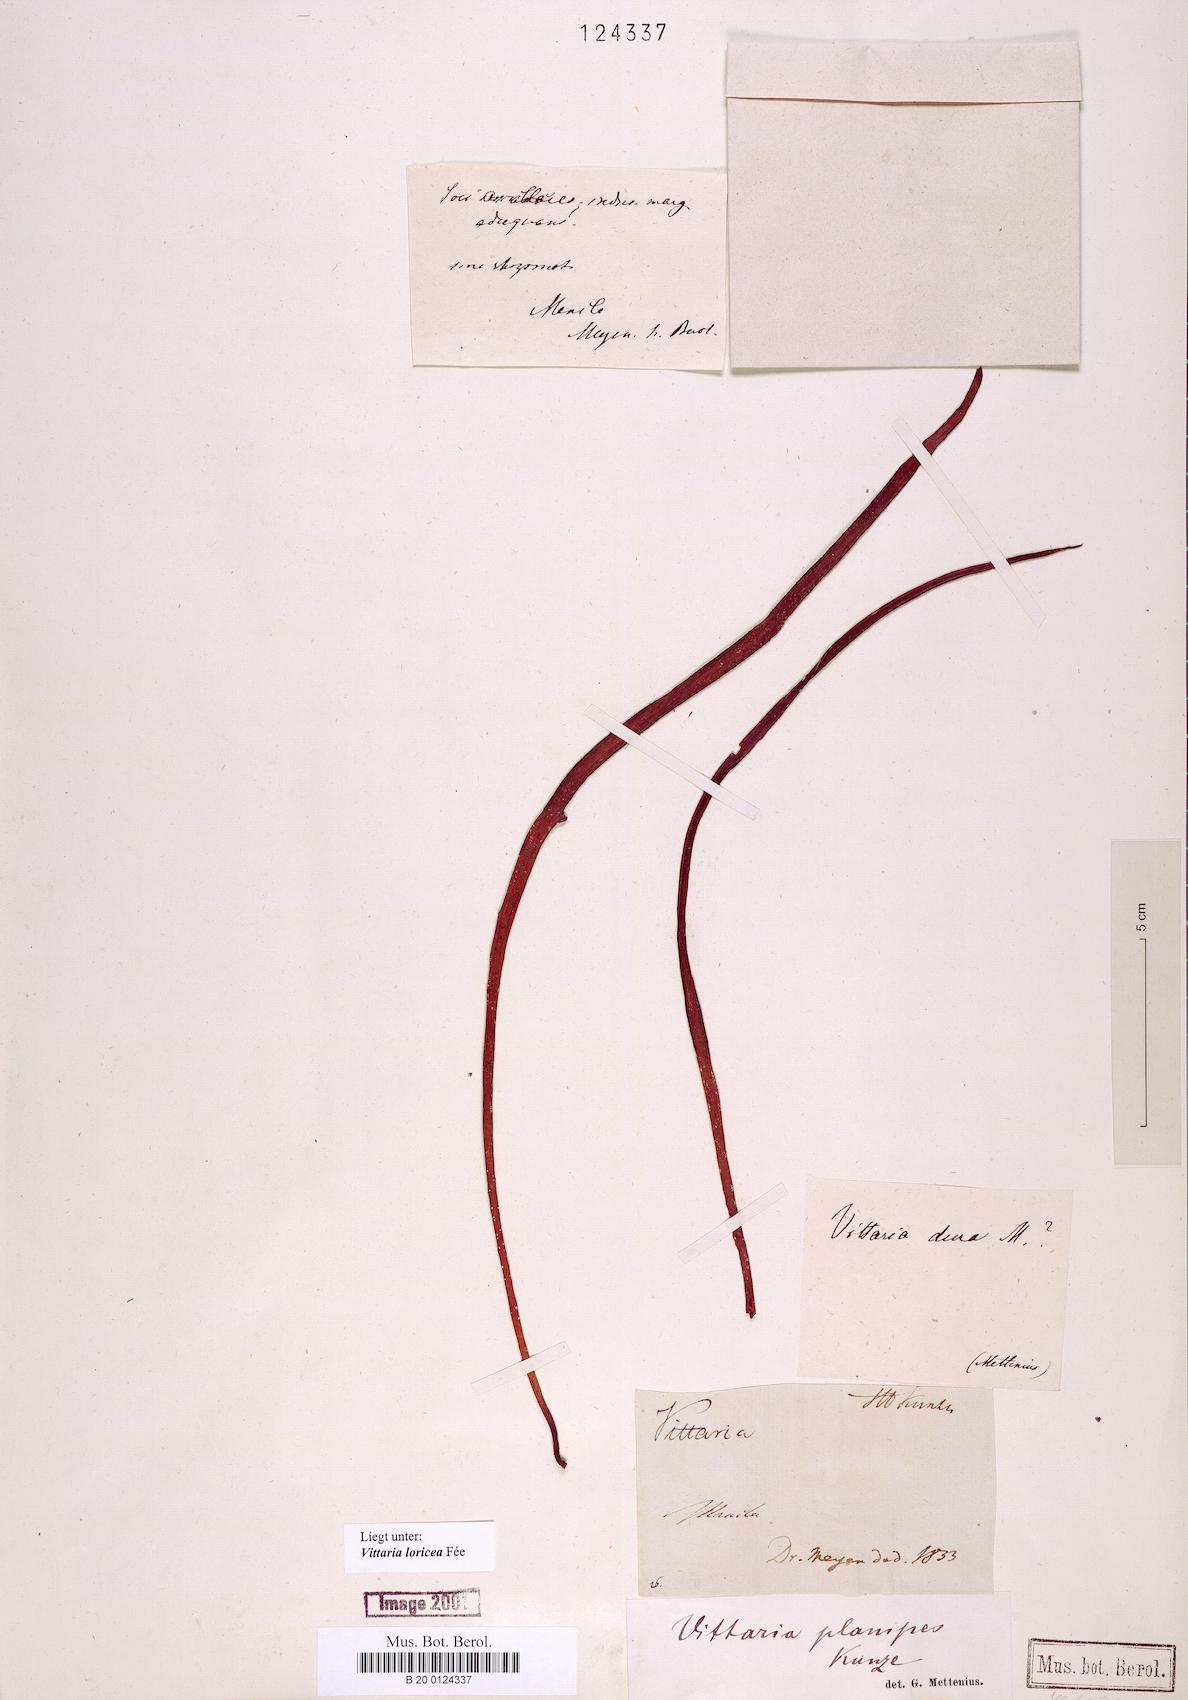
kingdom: Plantae
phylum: Tracheophyta
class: Polypodiopsida
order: Polypodiales
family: Pteridaceae
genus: Haplopteris
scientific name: Haplopteris zosterifolia
